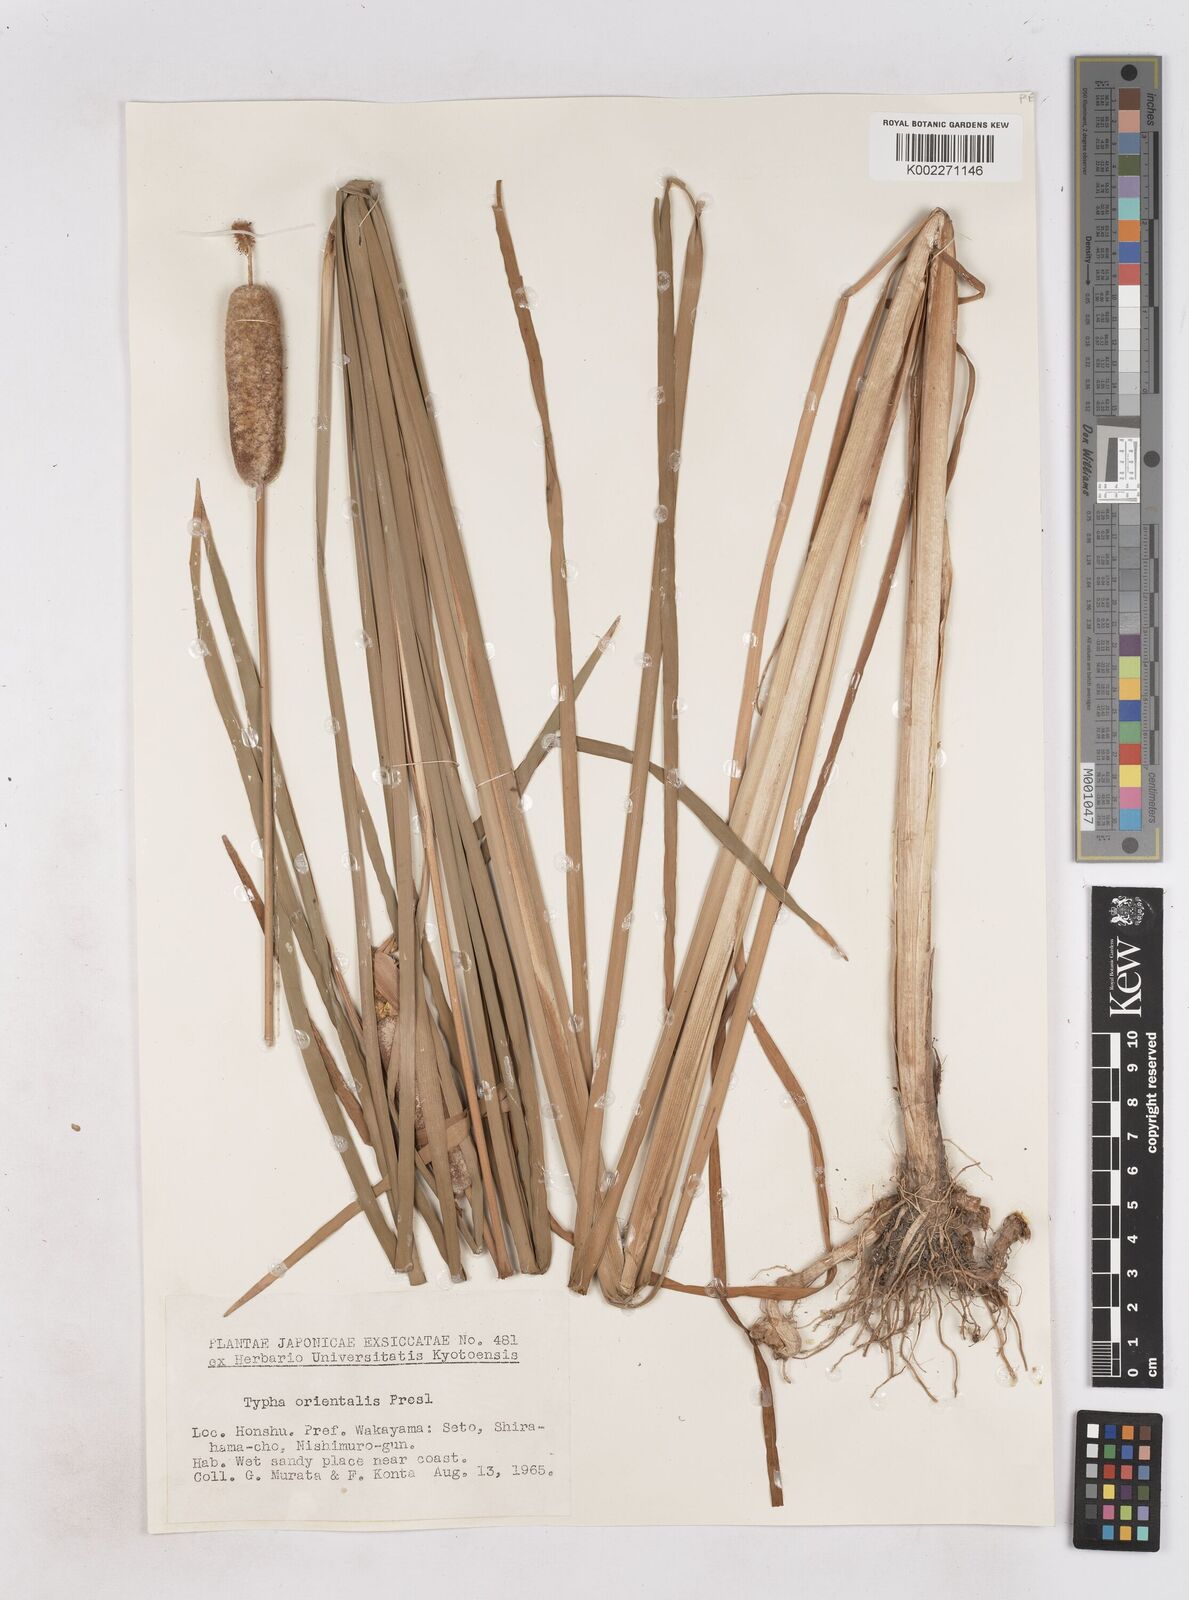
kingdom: Plantae
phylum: Tracheophyta
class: Liliopsida
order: Poales
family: Typhaceae
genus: Typha
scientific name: Typha
